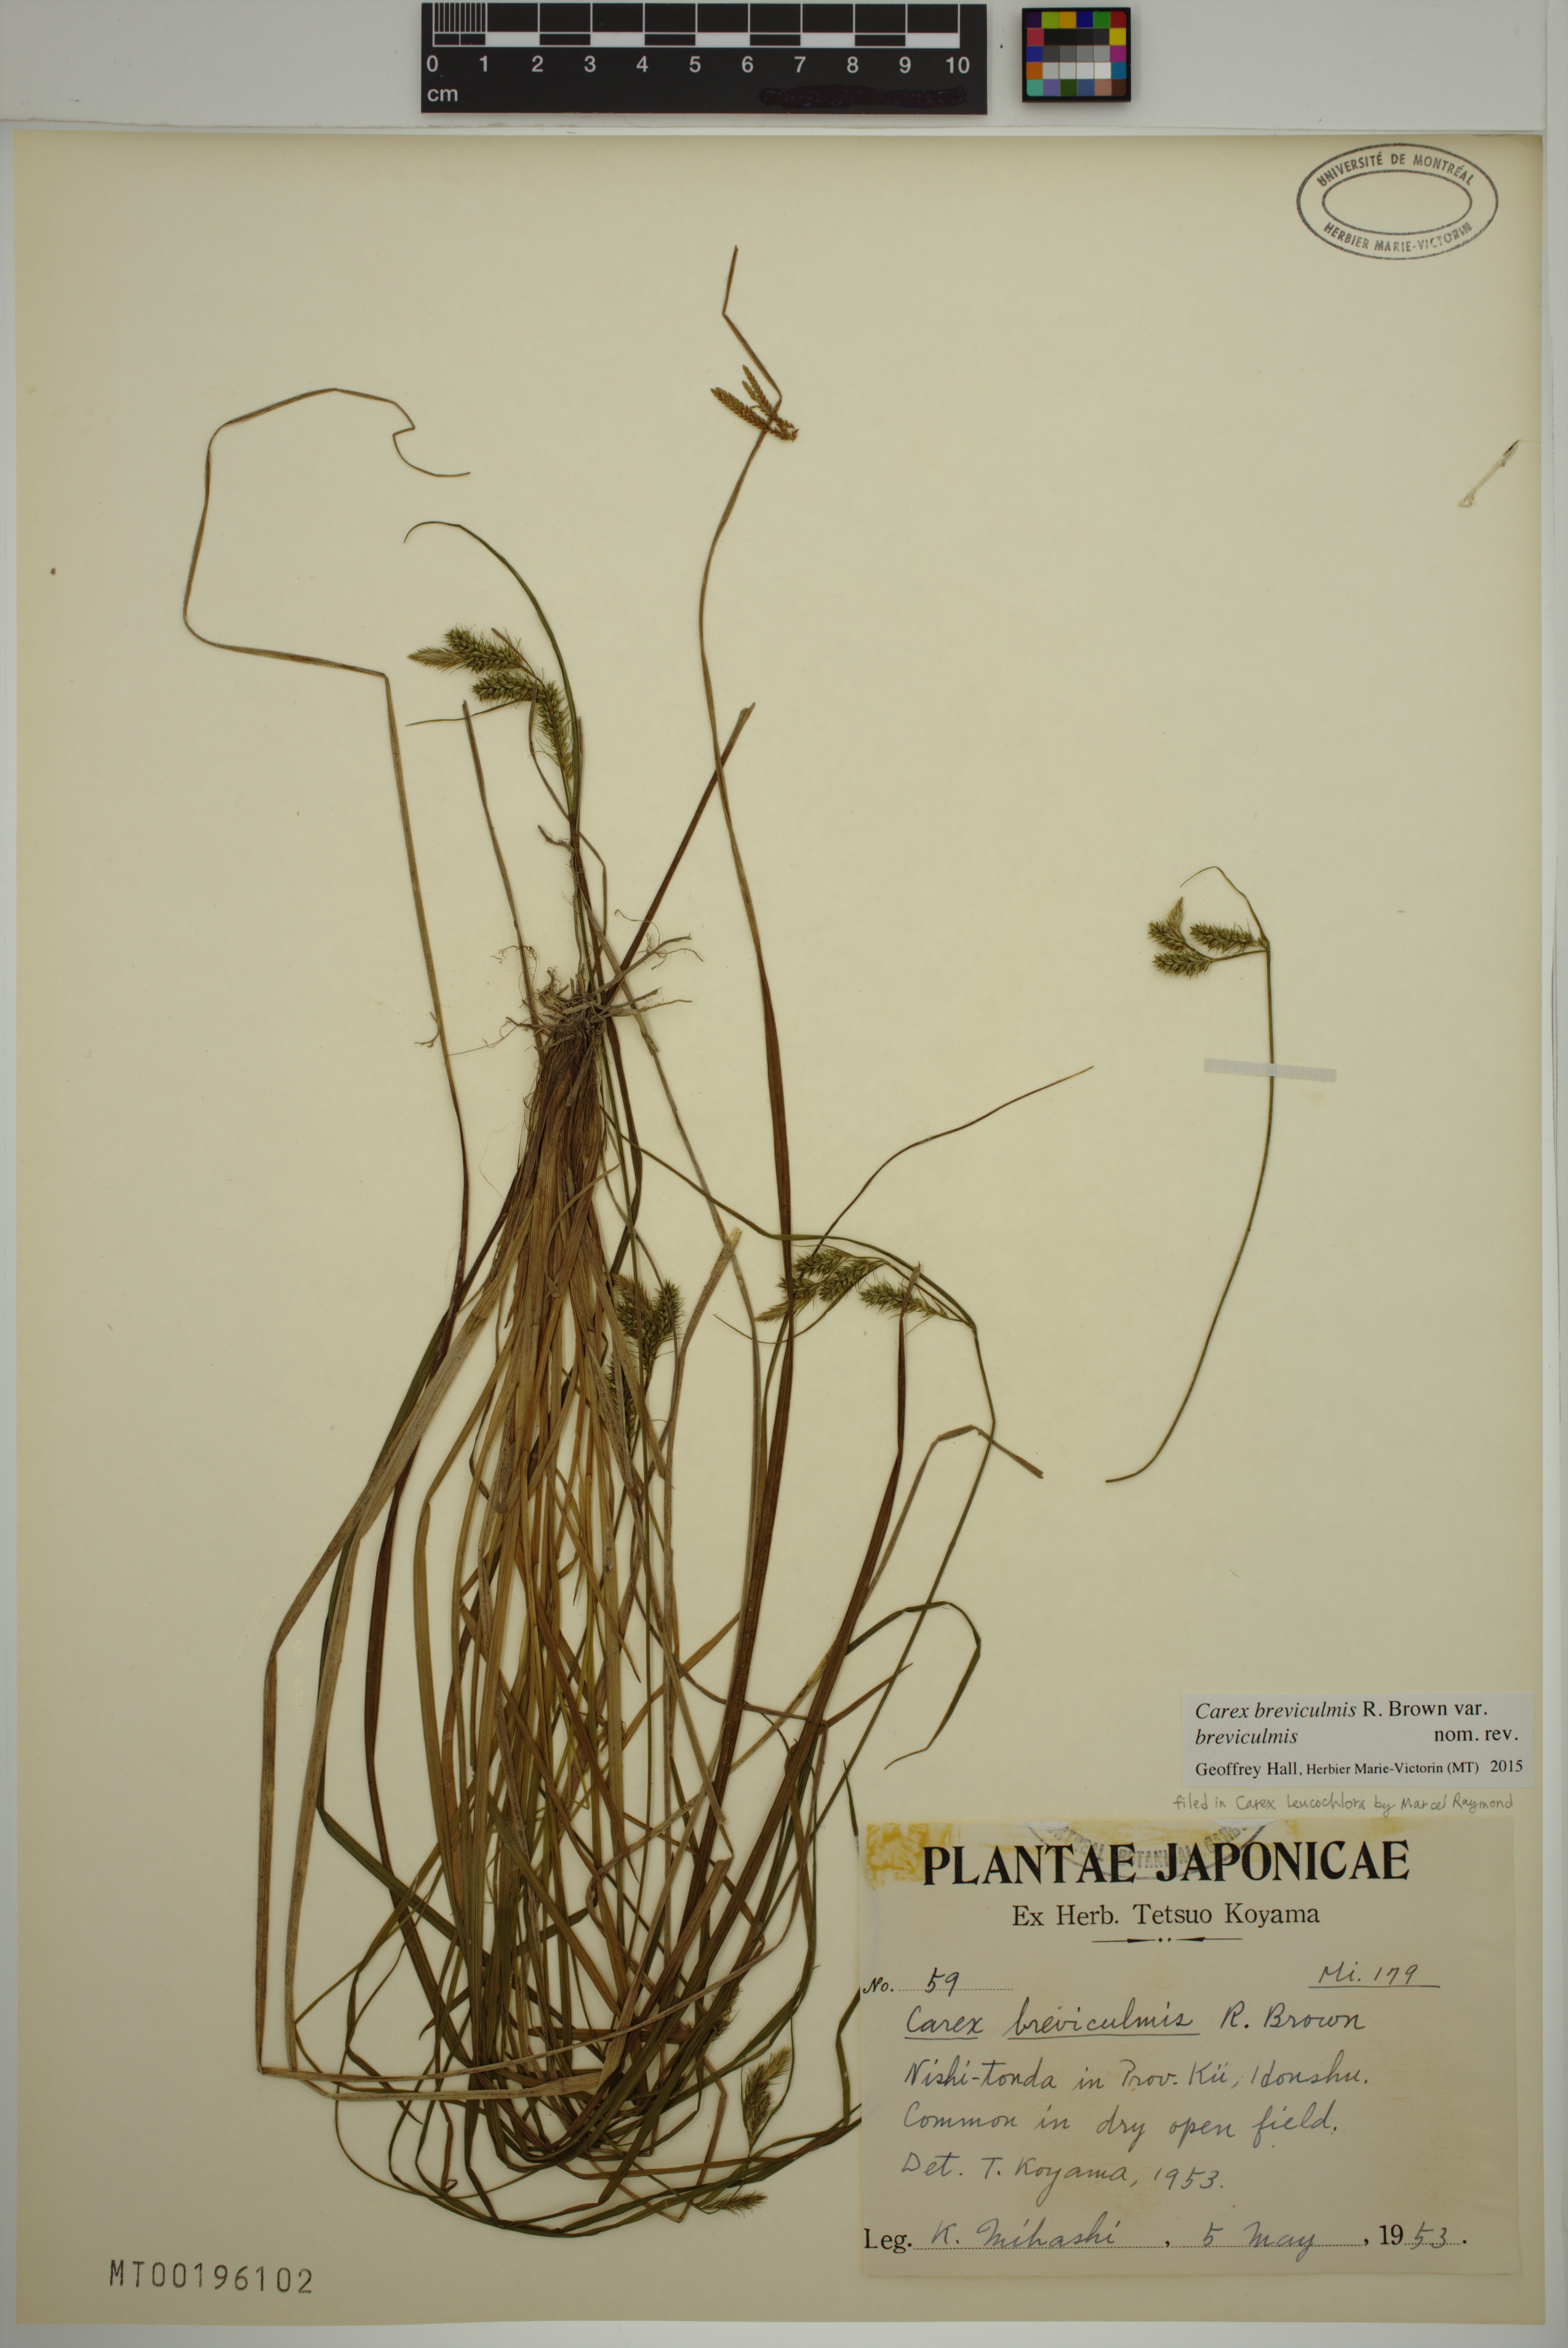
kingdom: Plantae
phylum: Tracheophyta
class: Liliopsida
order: Poales
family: Cyperaceae
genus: Carex
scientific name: Carex breviculmis
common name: Asian shortstem sedge
